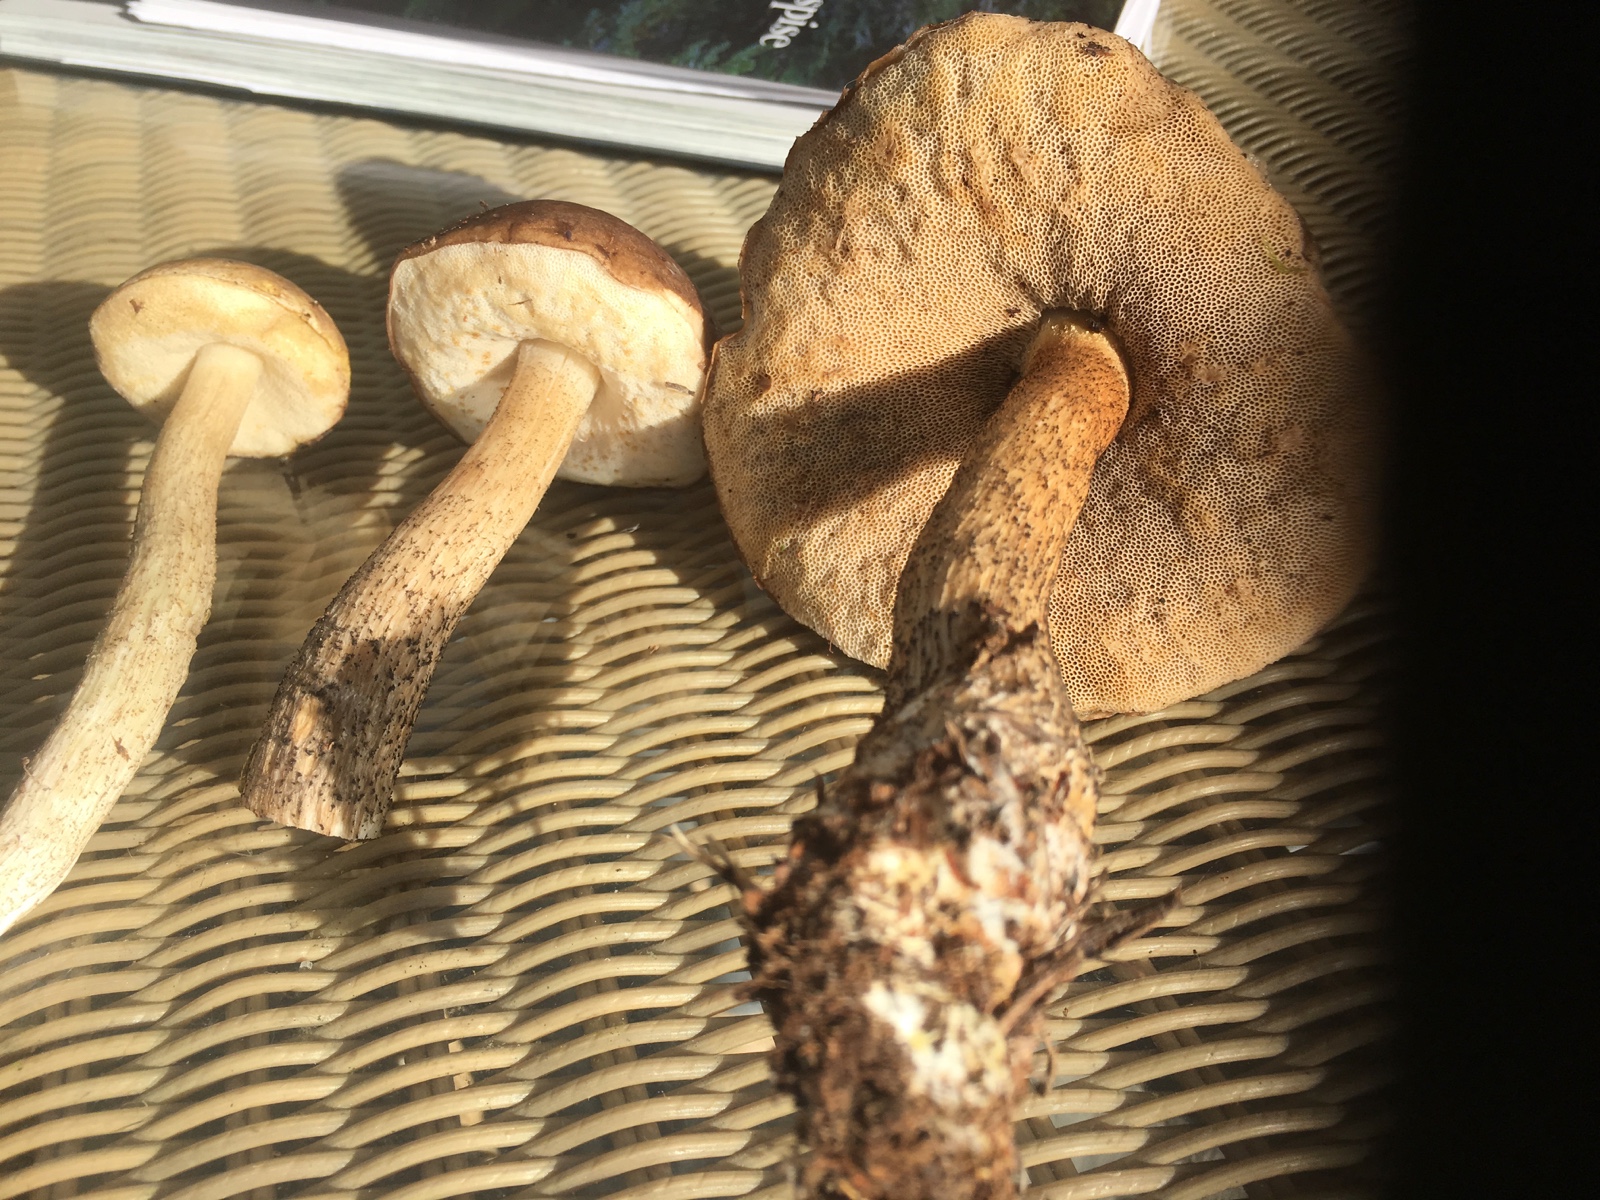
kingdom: Fungi
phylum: Basidiomycota
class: Agaricomycetes
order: Boletales
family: Boletaceae
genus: Leccinum
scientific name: Leccinum
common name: skælrørhat
